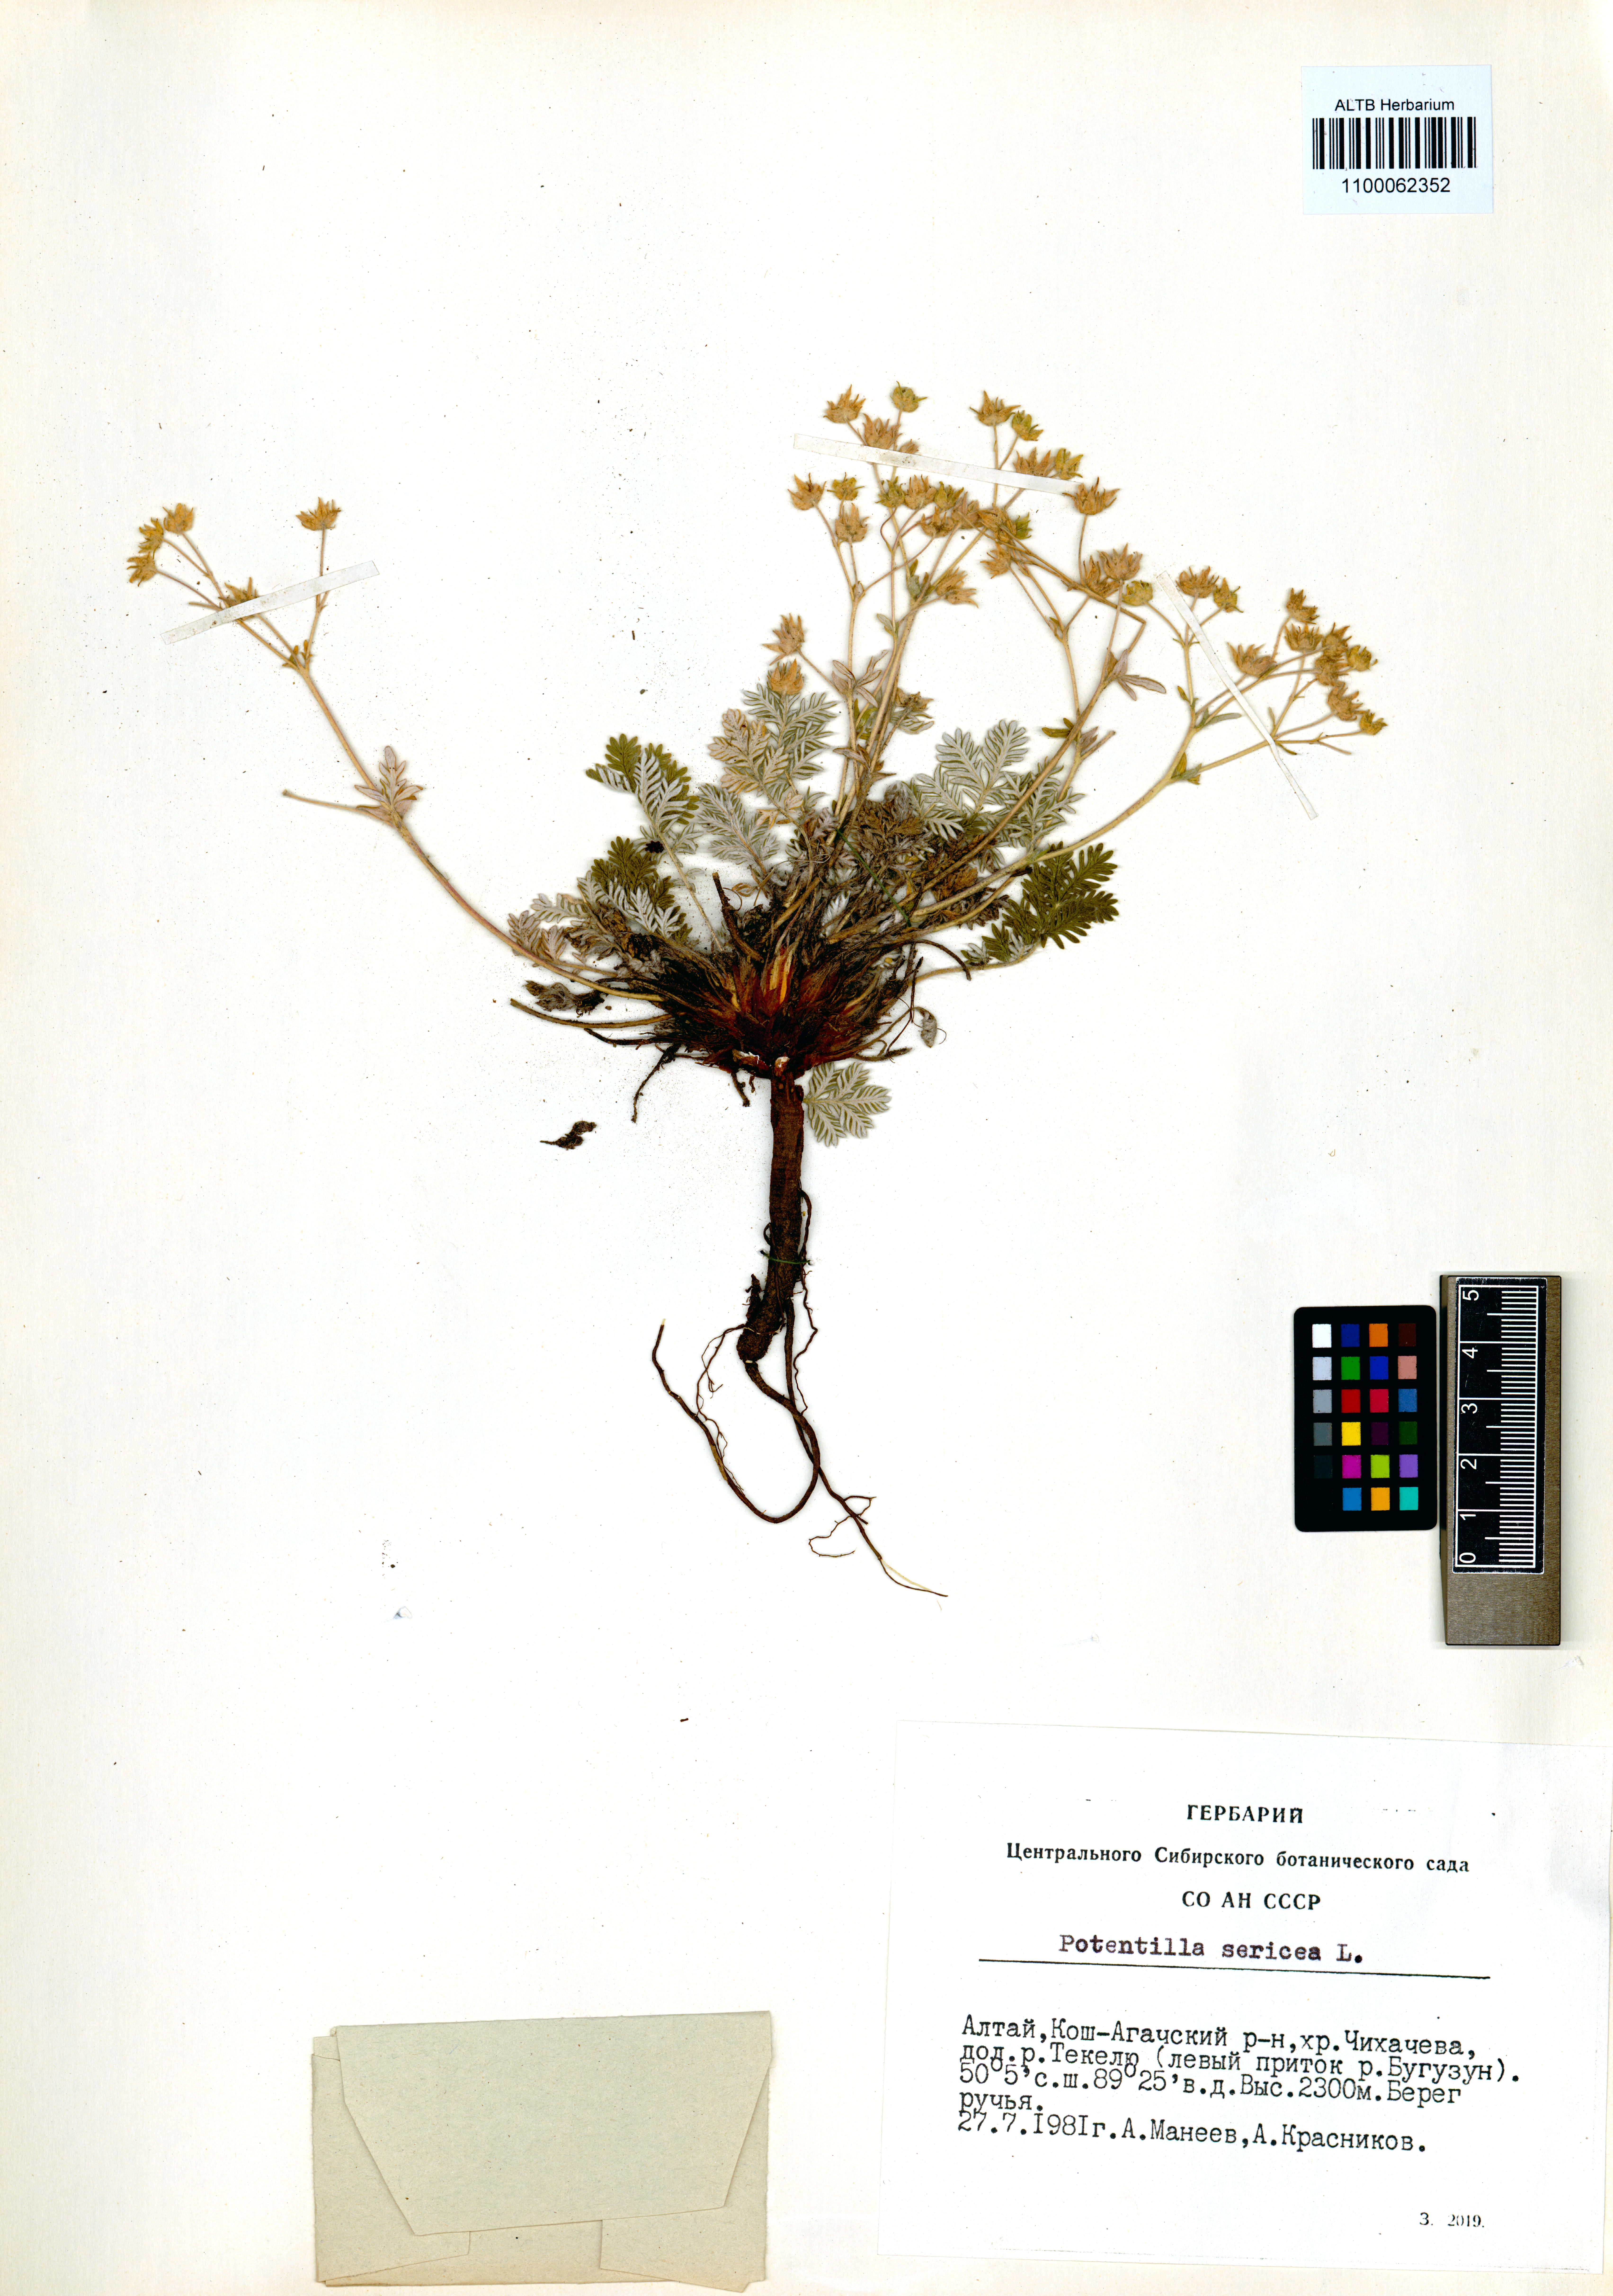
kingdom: Plantae
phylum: Tracheophyta
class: Magnoliopsida
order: Rosales
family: Rosaceae
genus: Potentilla
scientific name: Potentilla sericea
